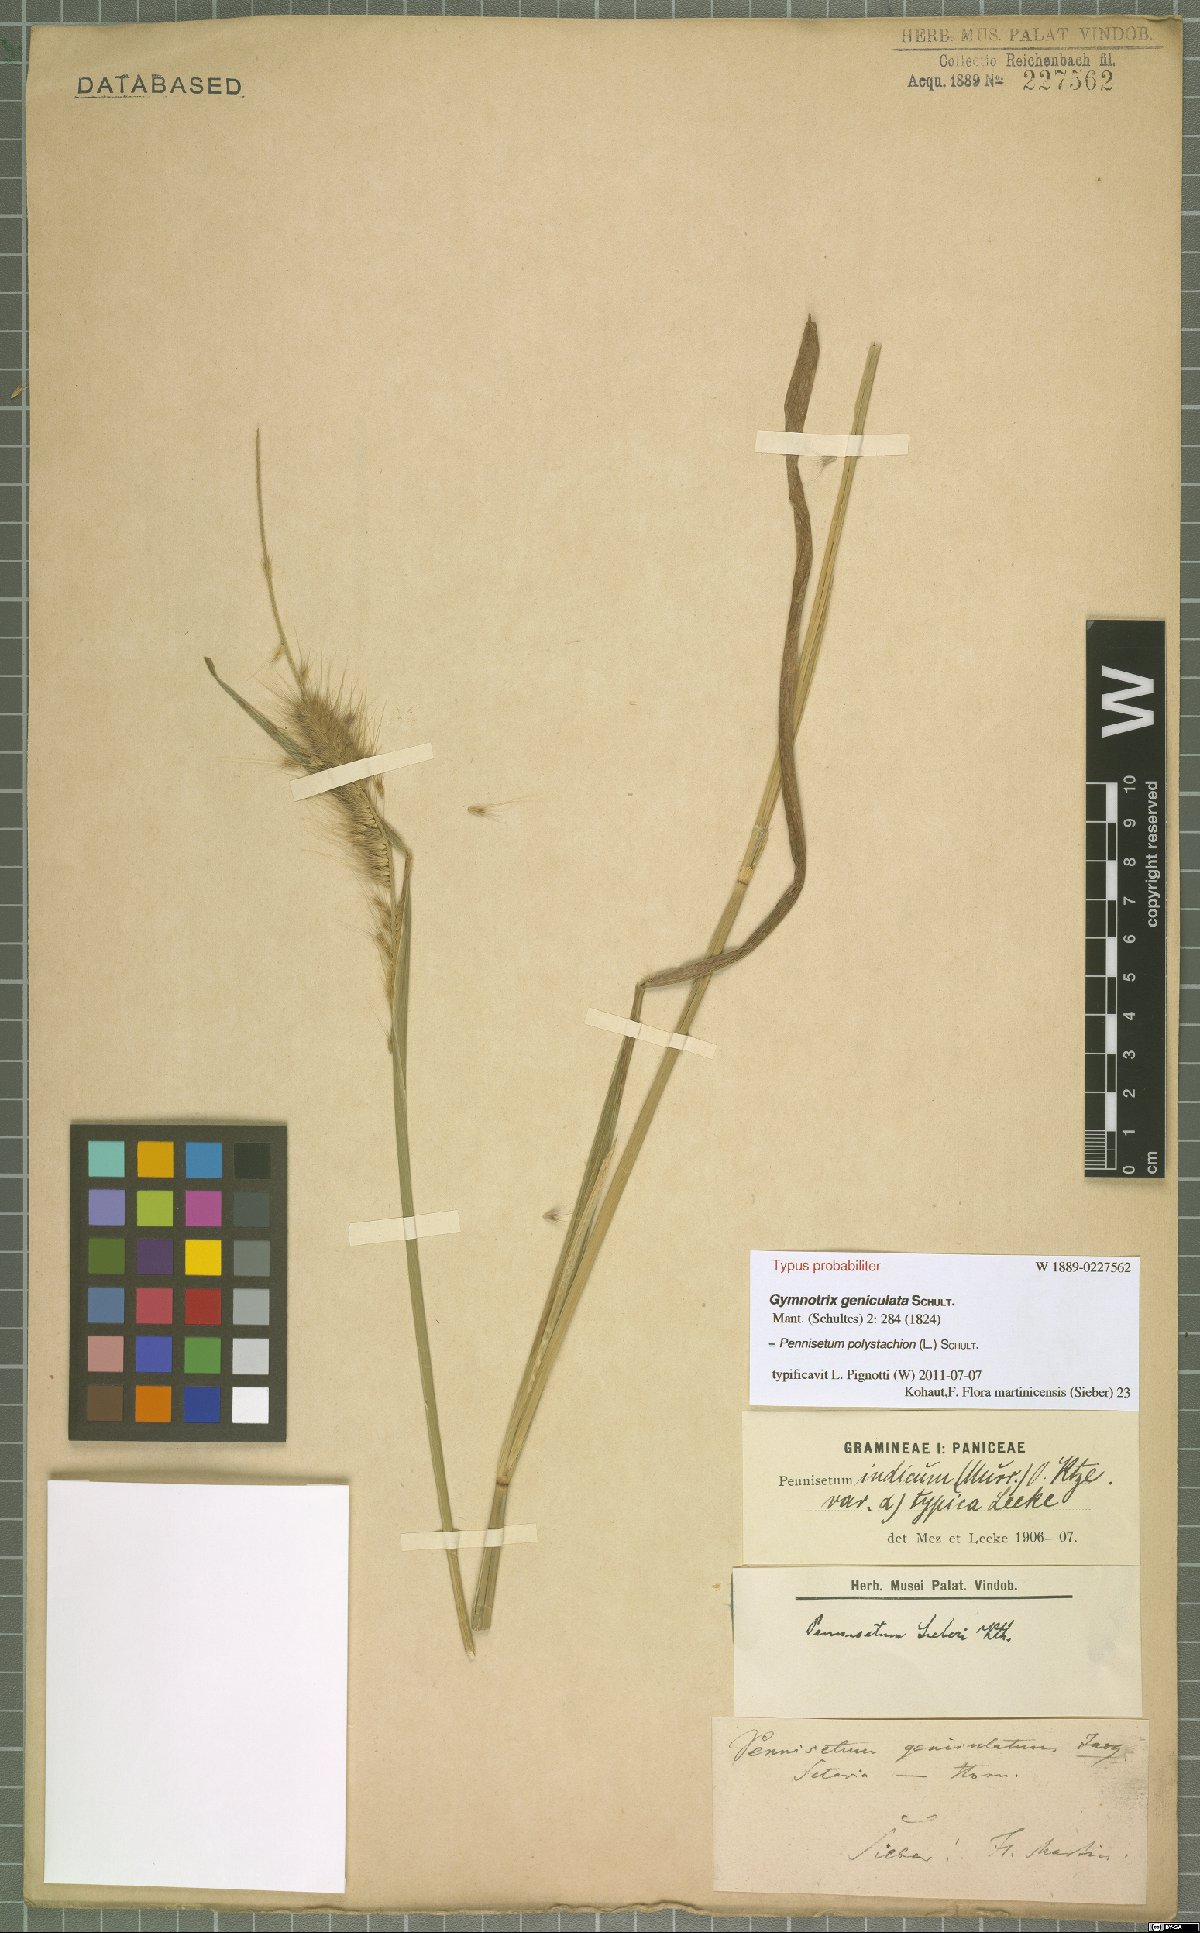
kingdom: Plantae
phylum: Tracheophyta
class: Liliopsida
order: Poales
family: Poaceae
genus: Setaria
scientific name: Setaria parviflora
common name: Knotroot bristle-grass
